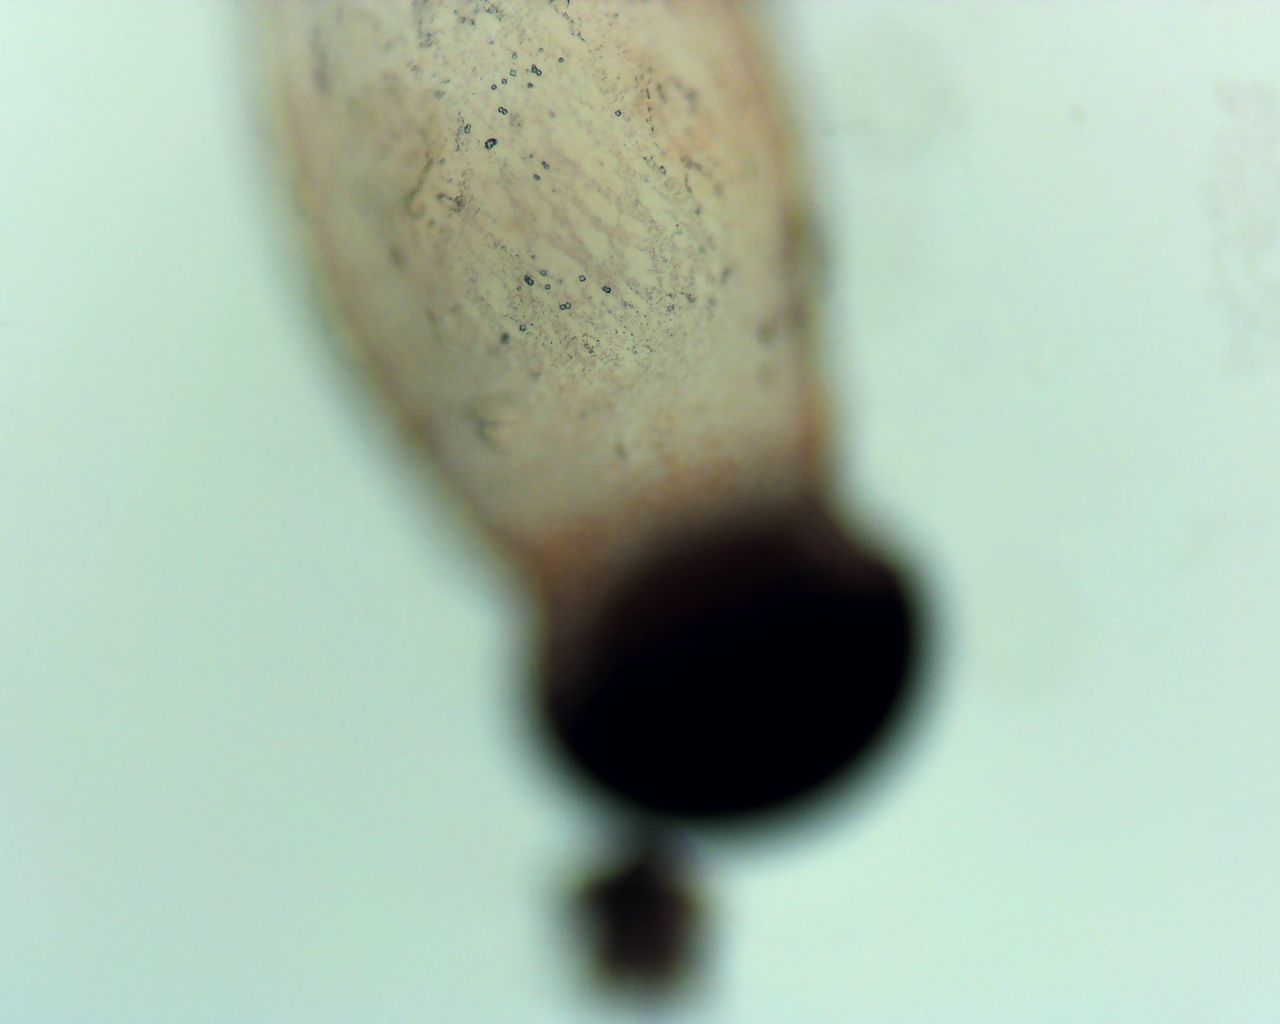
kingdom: Fungi
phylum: Mucoromycota
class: Mucoromycetes
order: Mucorales
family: Pilobolaceae
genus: Pilobolus
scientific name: Pilobolus
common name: boldkaster
